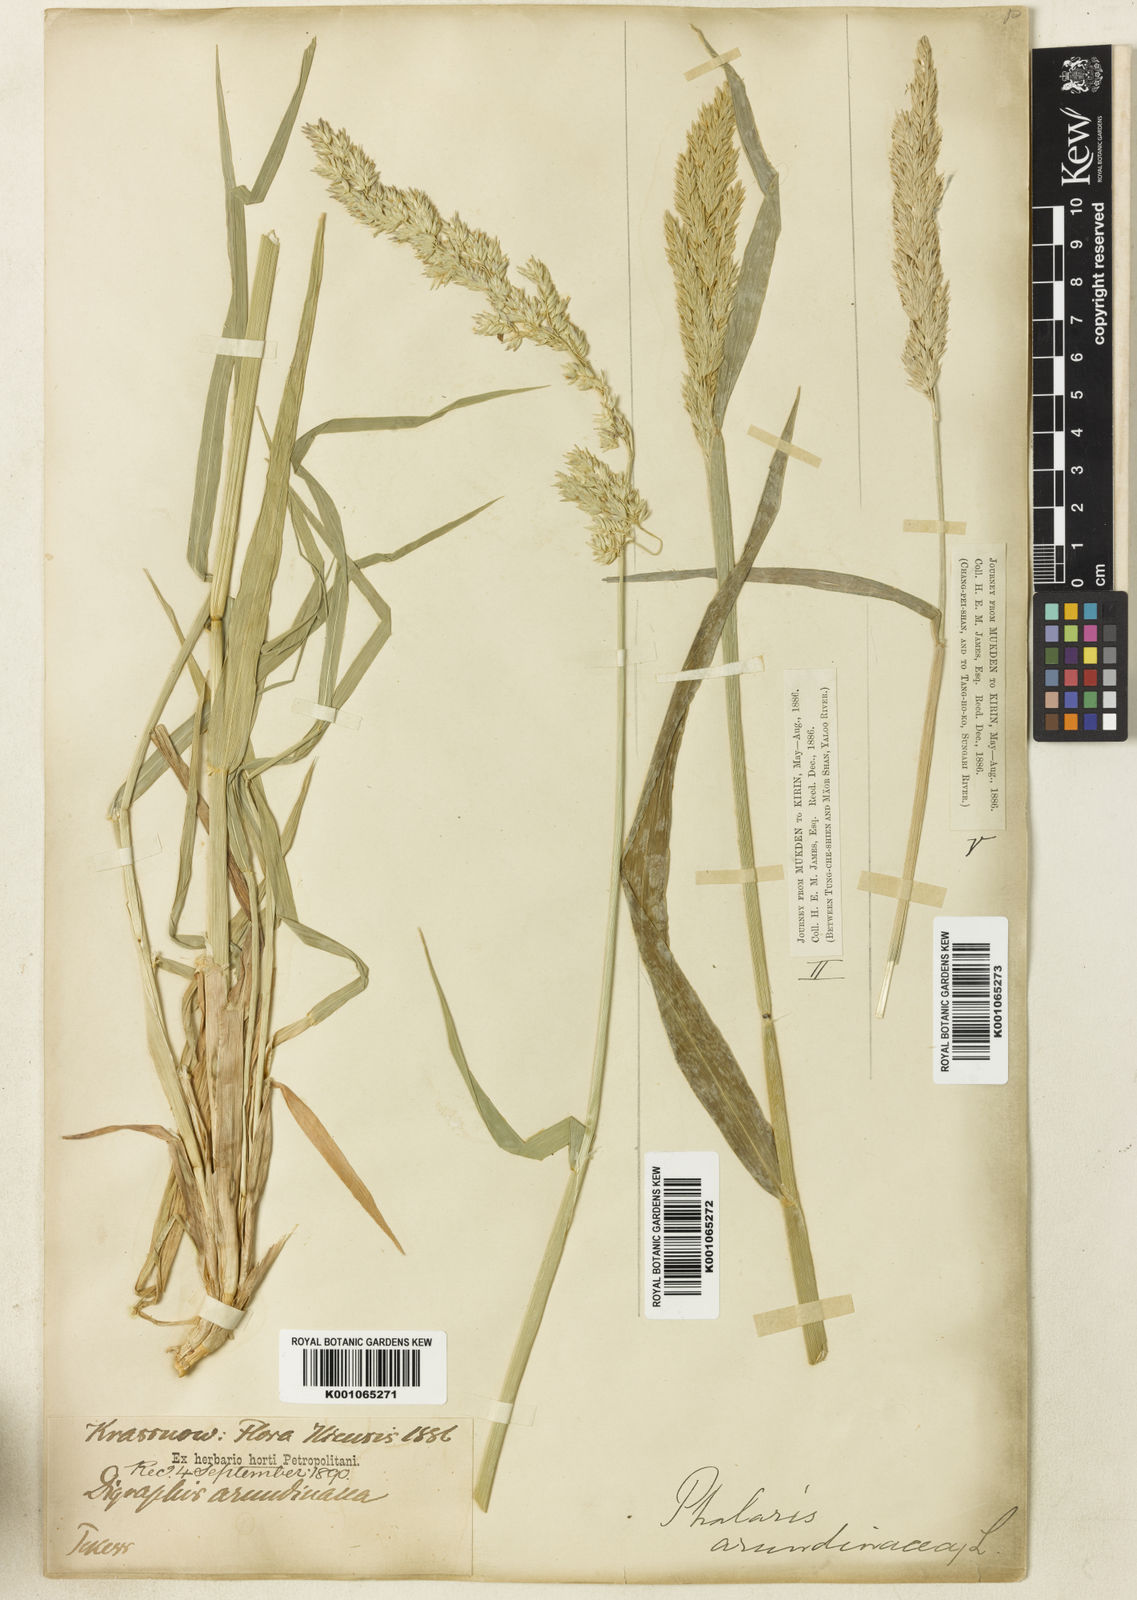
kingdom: Plantae
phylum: Tracheophyta
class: Liliopsida
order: Poales
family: Poaceae
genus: Phalaris
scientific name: Phalaris arundinacea
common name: Reed canary-grass
